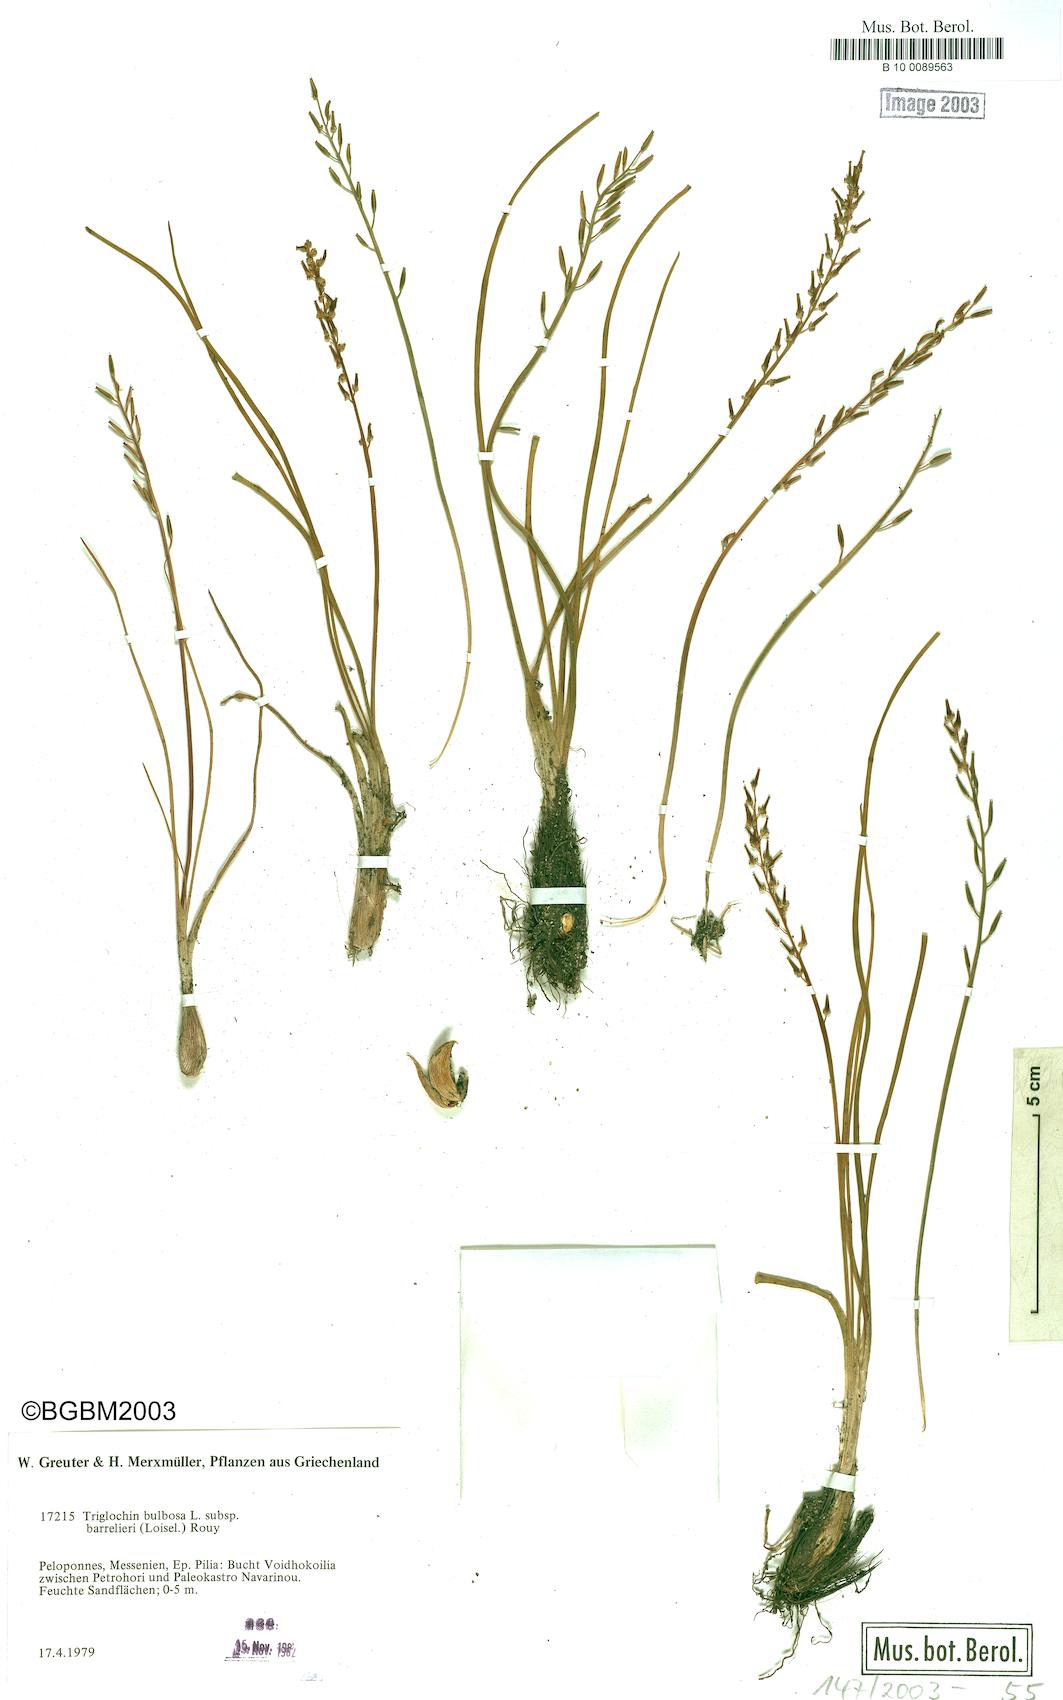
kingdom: Plantae
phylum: Tracheophyta
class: Liliopsida
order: Alismatales
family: Juncaginaceae
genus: Triglochin
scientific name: Triglochin barrelieri
